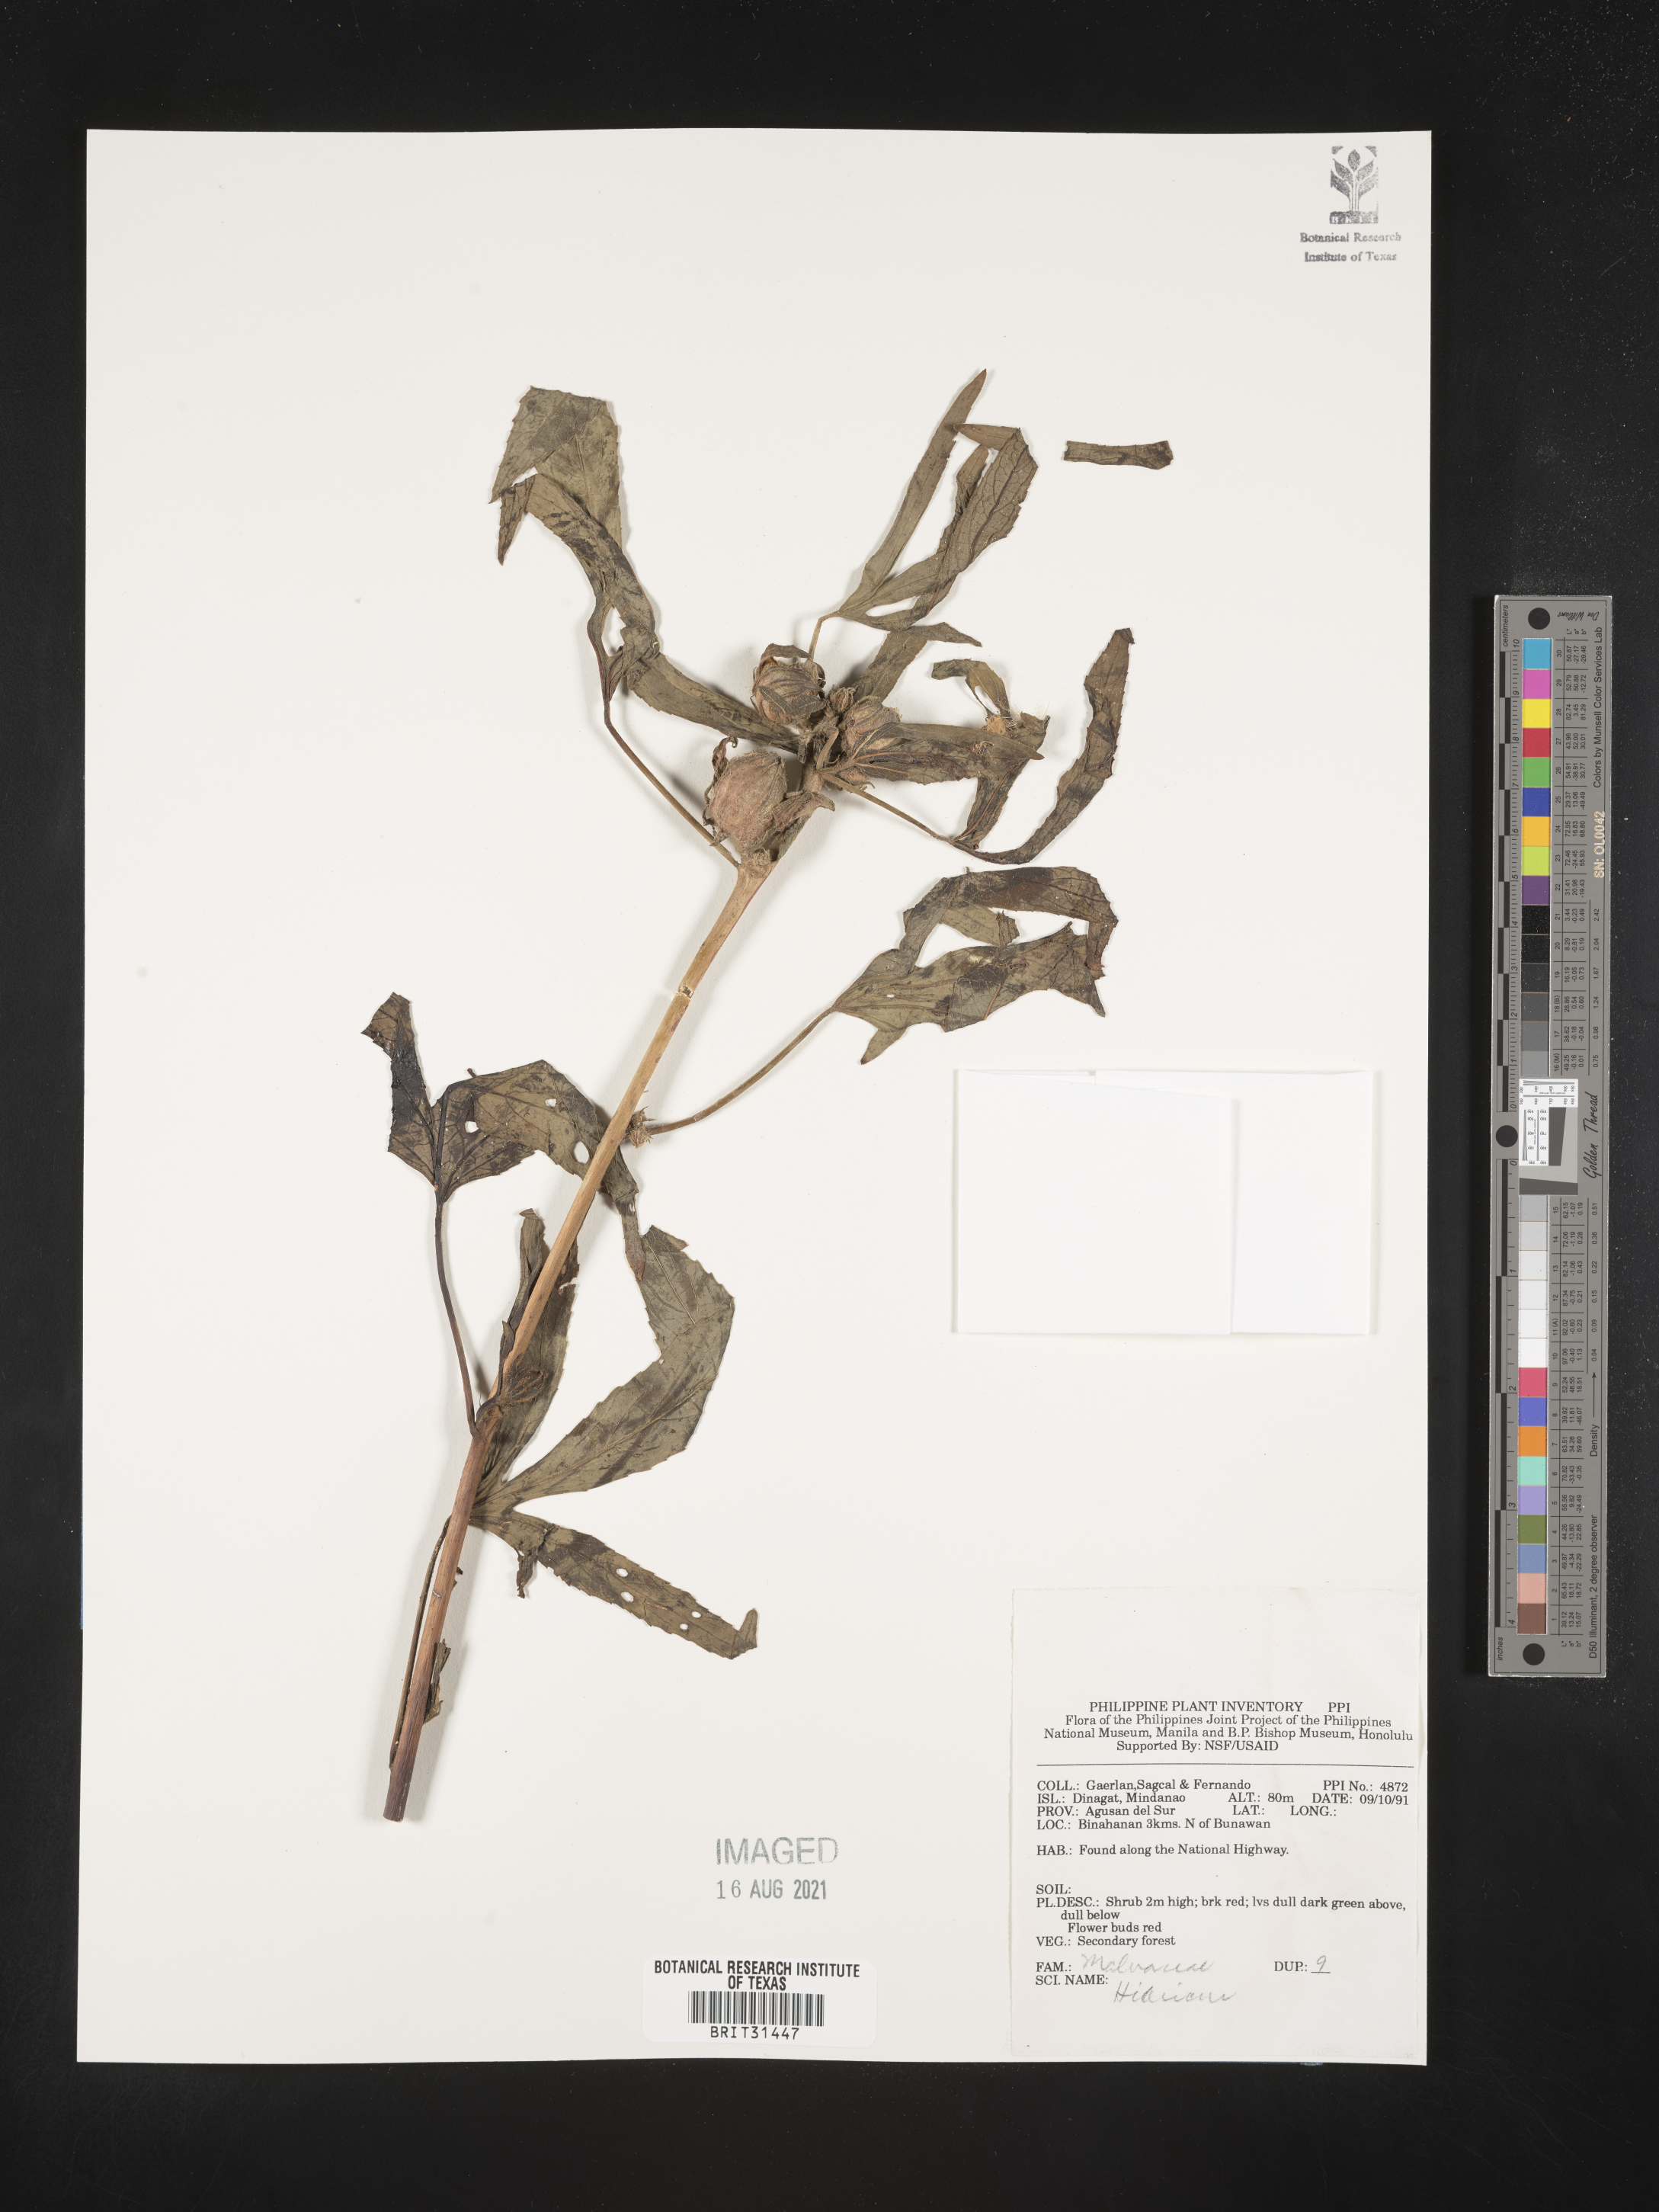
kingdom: Plantae
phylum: Tracheophyta
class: Magnoliopsida
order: Malvales
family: Malvaceae
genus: Hibiscus
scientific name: Hibiscus
